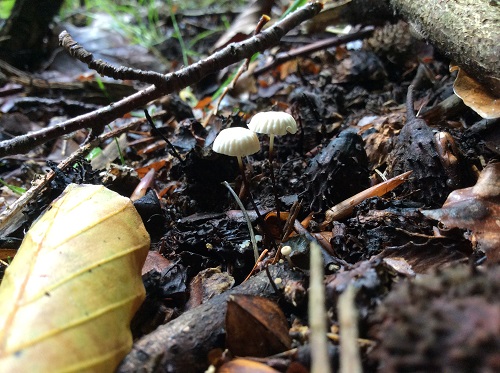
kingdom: Fungi
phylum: Basidiomycota
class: Agaricomycetes
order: Agaricales
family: Marasmiaceae
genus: Marasmius
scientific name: Marasmius rotula
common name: hjul-bruskhat
